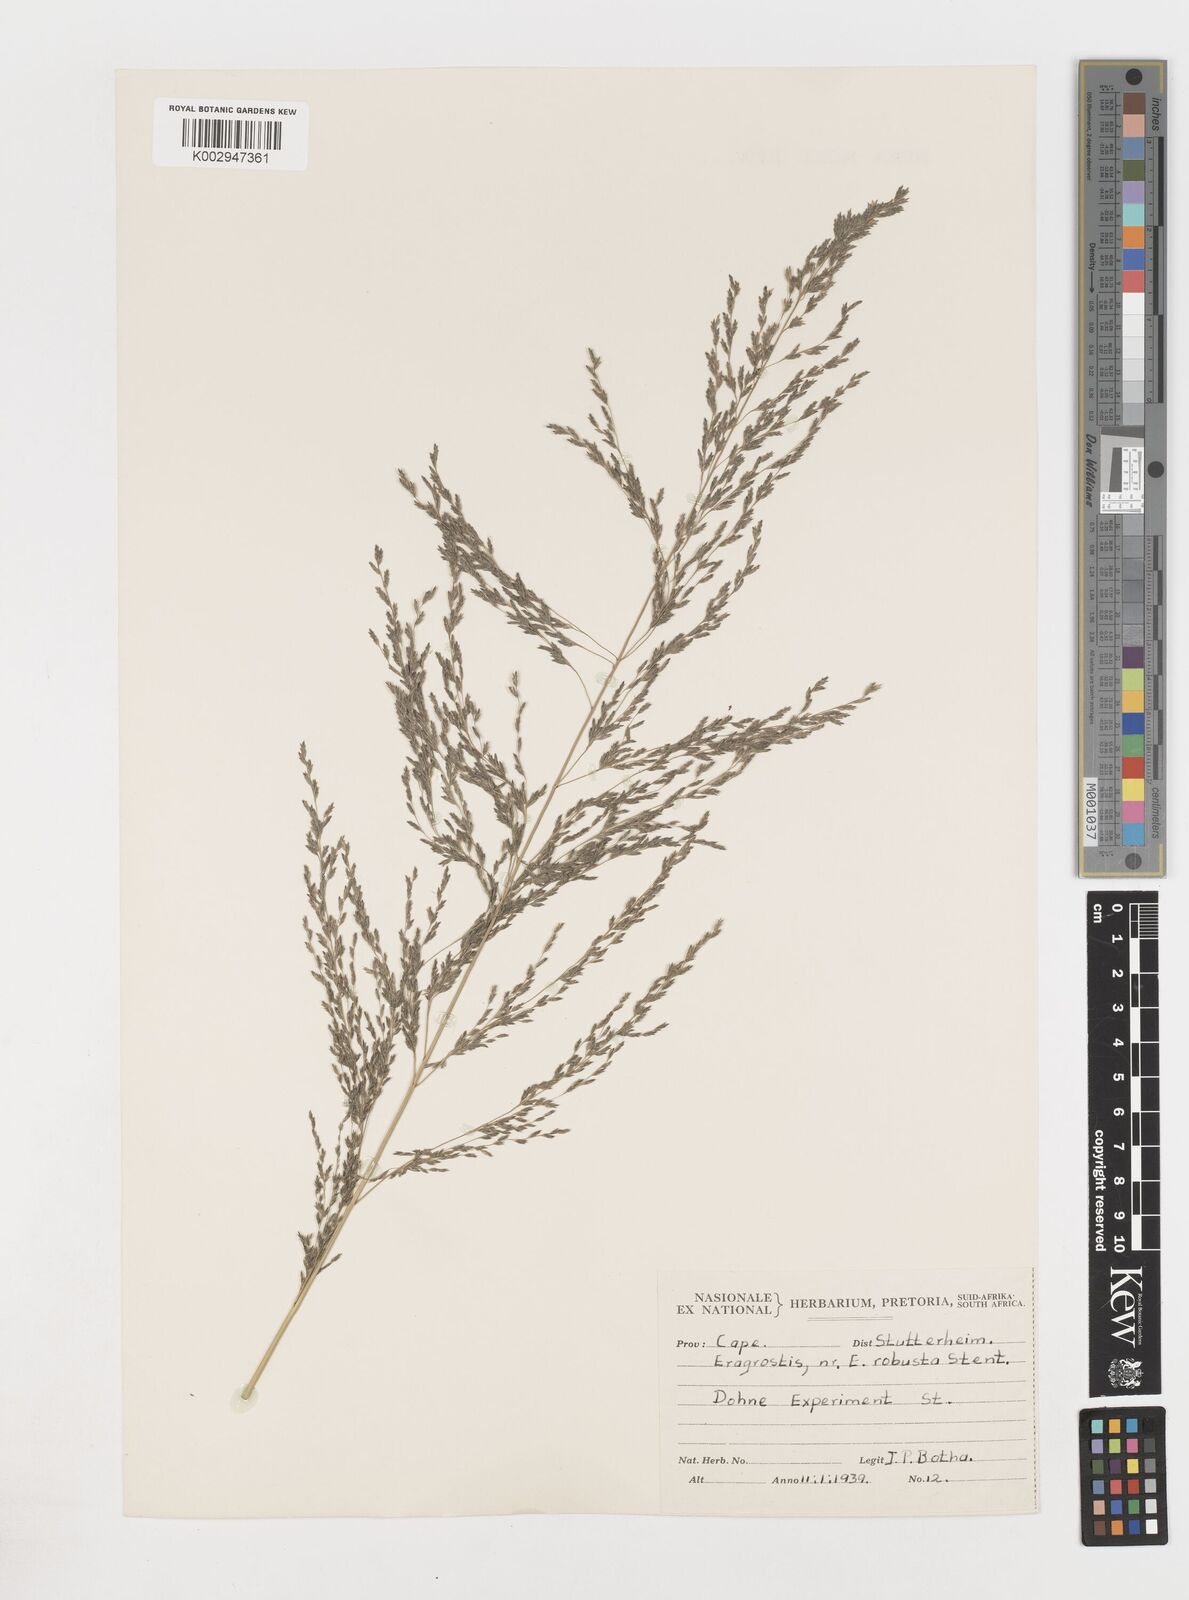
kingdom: Plantae
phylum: Tracheophyta
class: Liliopsida
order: Poales
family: Poaceae
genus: Eragrostis
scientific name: Eragrostis
